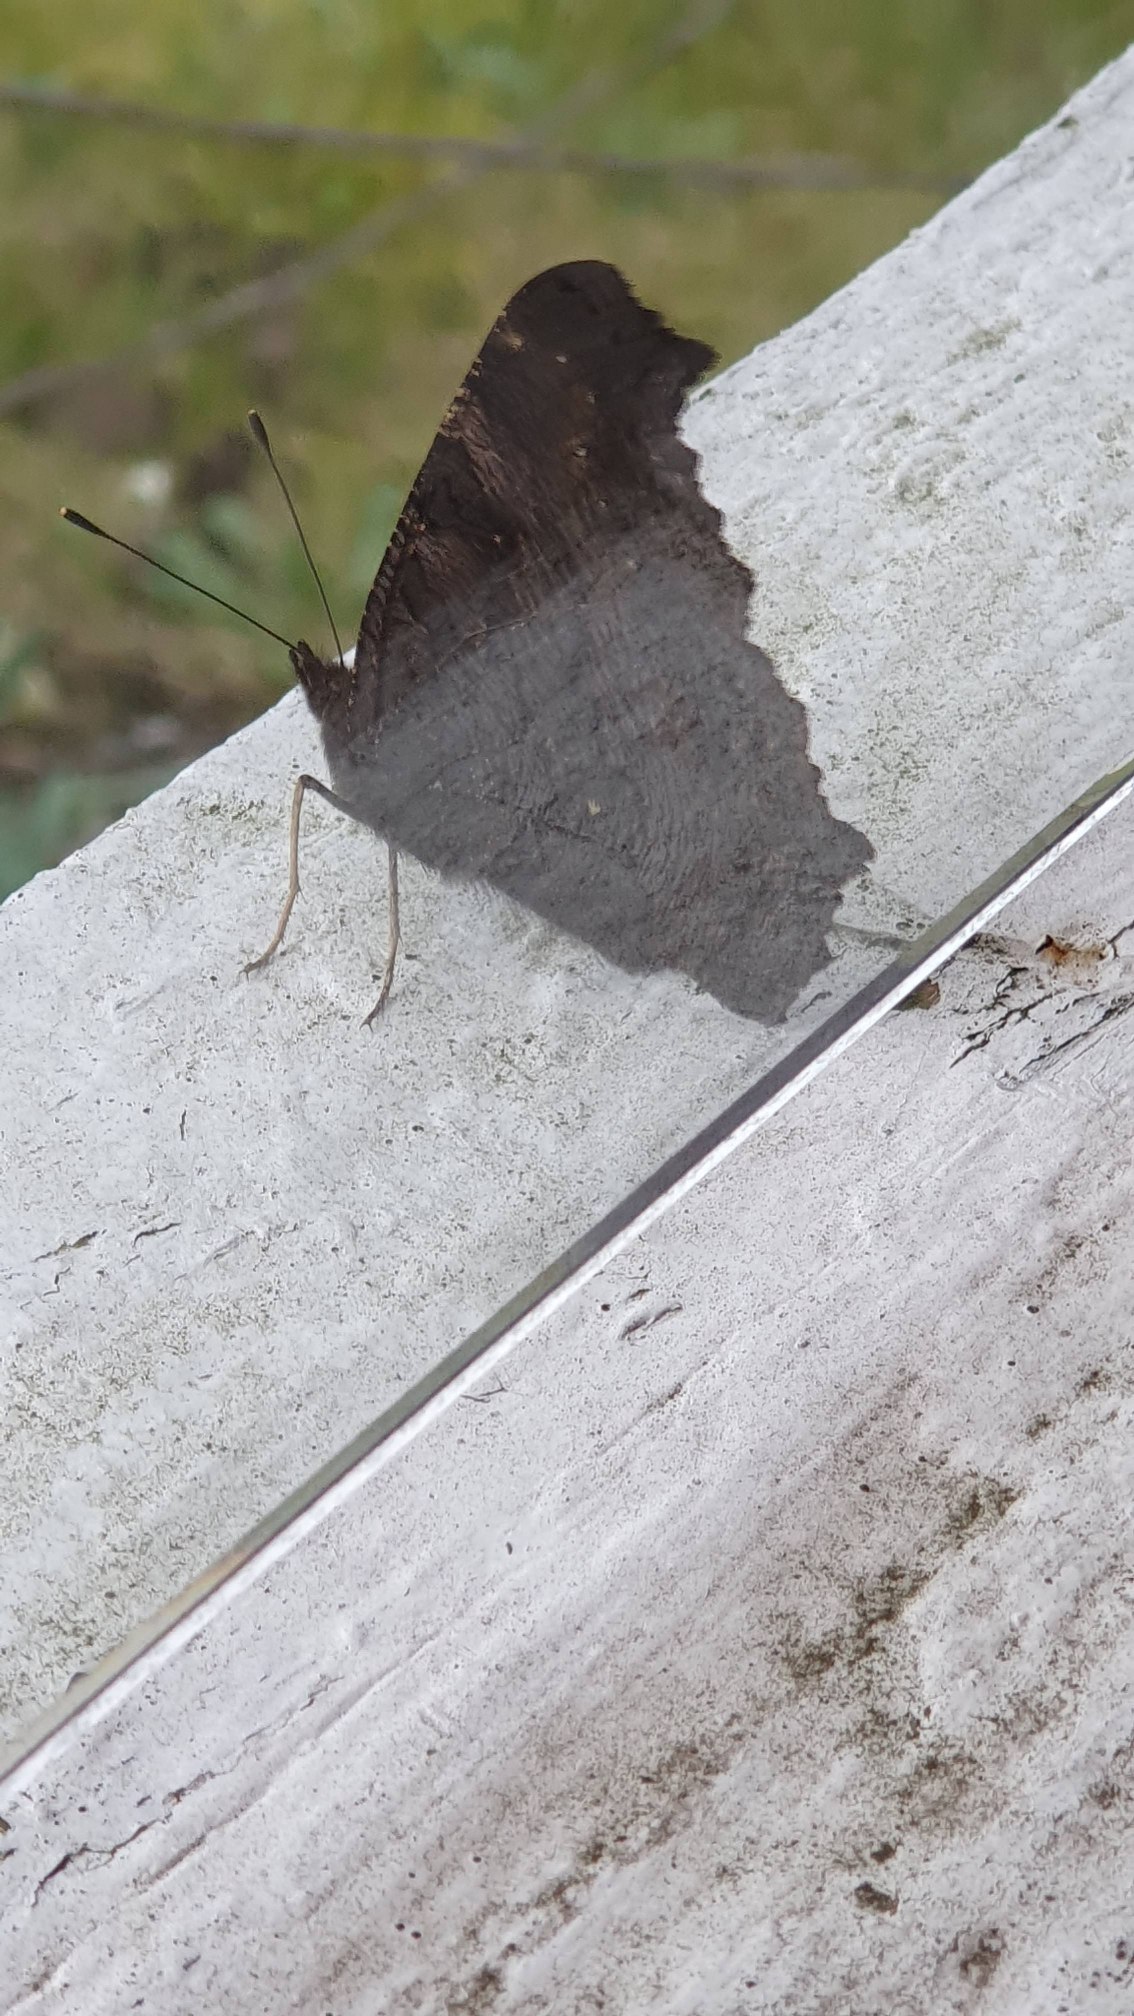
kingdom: Animalia
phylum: Arthropoda
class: Insecta
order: Lepidoptera
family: Nymphalidae
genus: Aglais
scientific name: Aglais io
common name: Dagpåfugleøje
